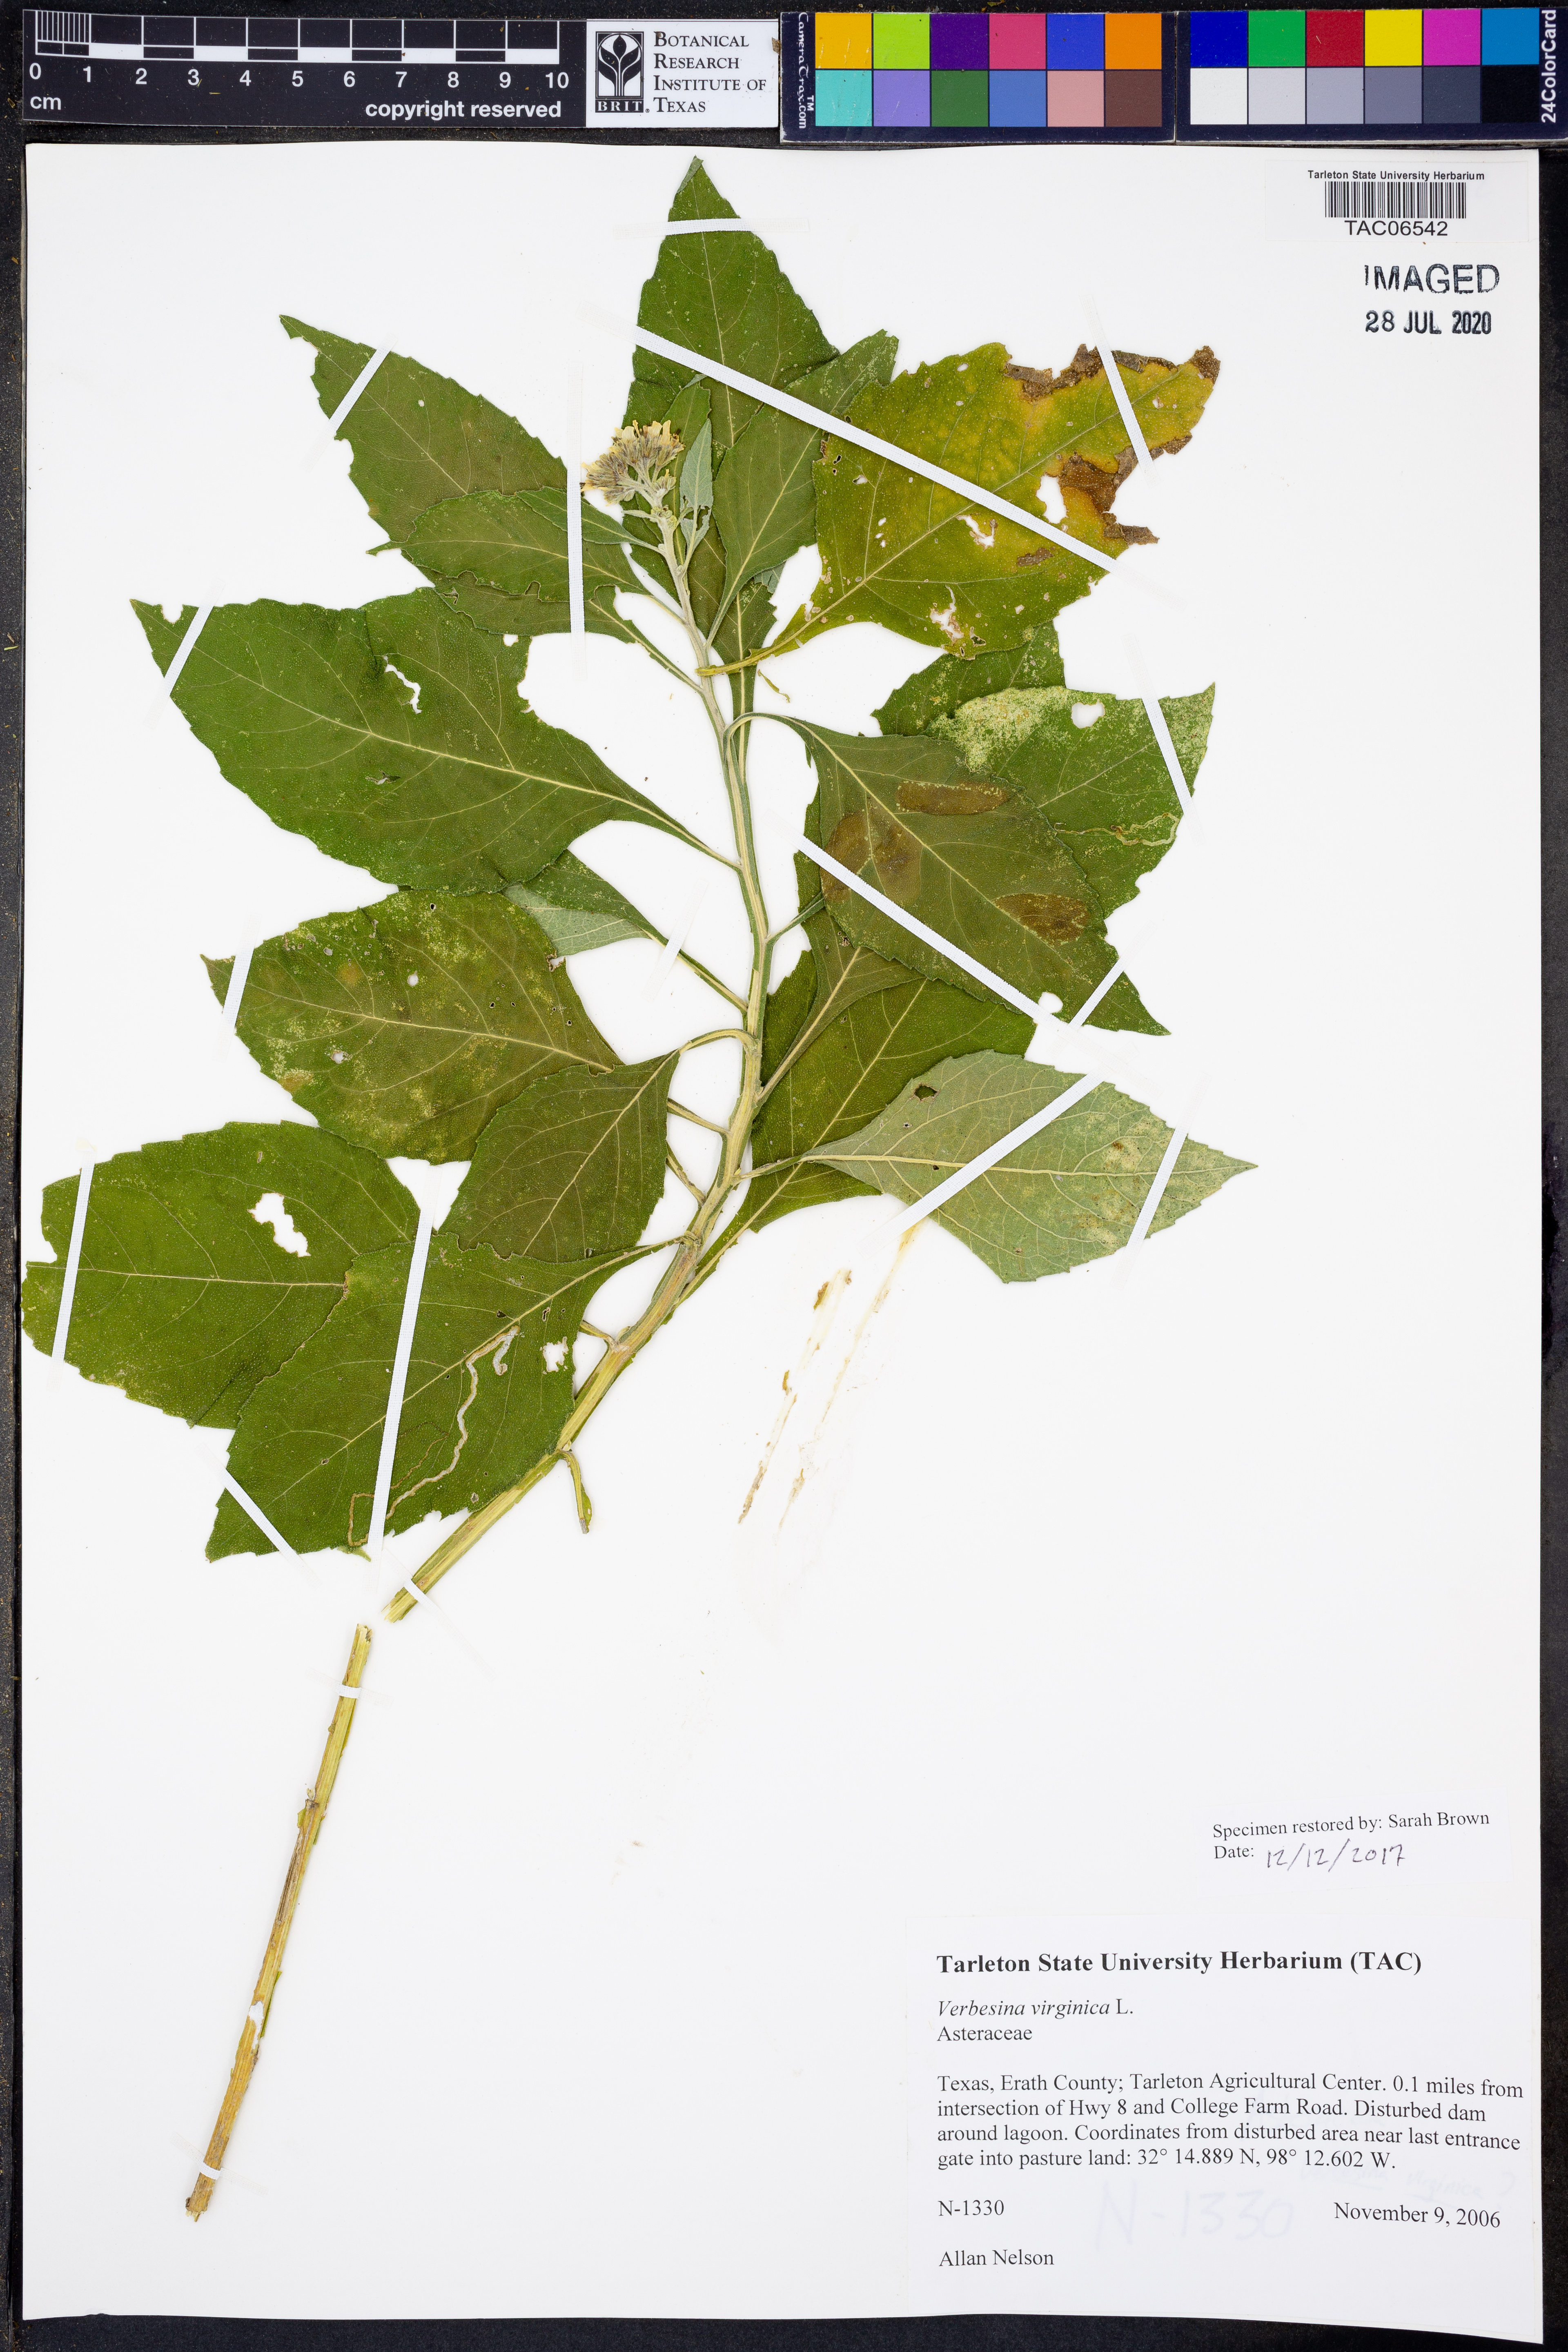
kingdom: Plantae
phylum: Tracheophyta
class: Magnoliopsida
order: Asterales
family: Asteraceae
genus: Verbesina
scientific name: Verbesina virginica
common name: Frostweed
